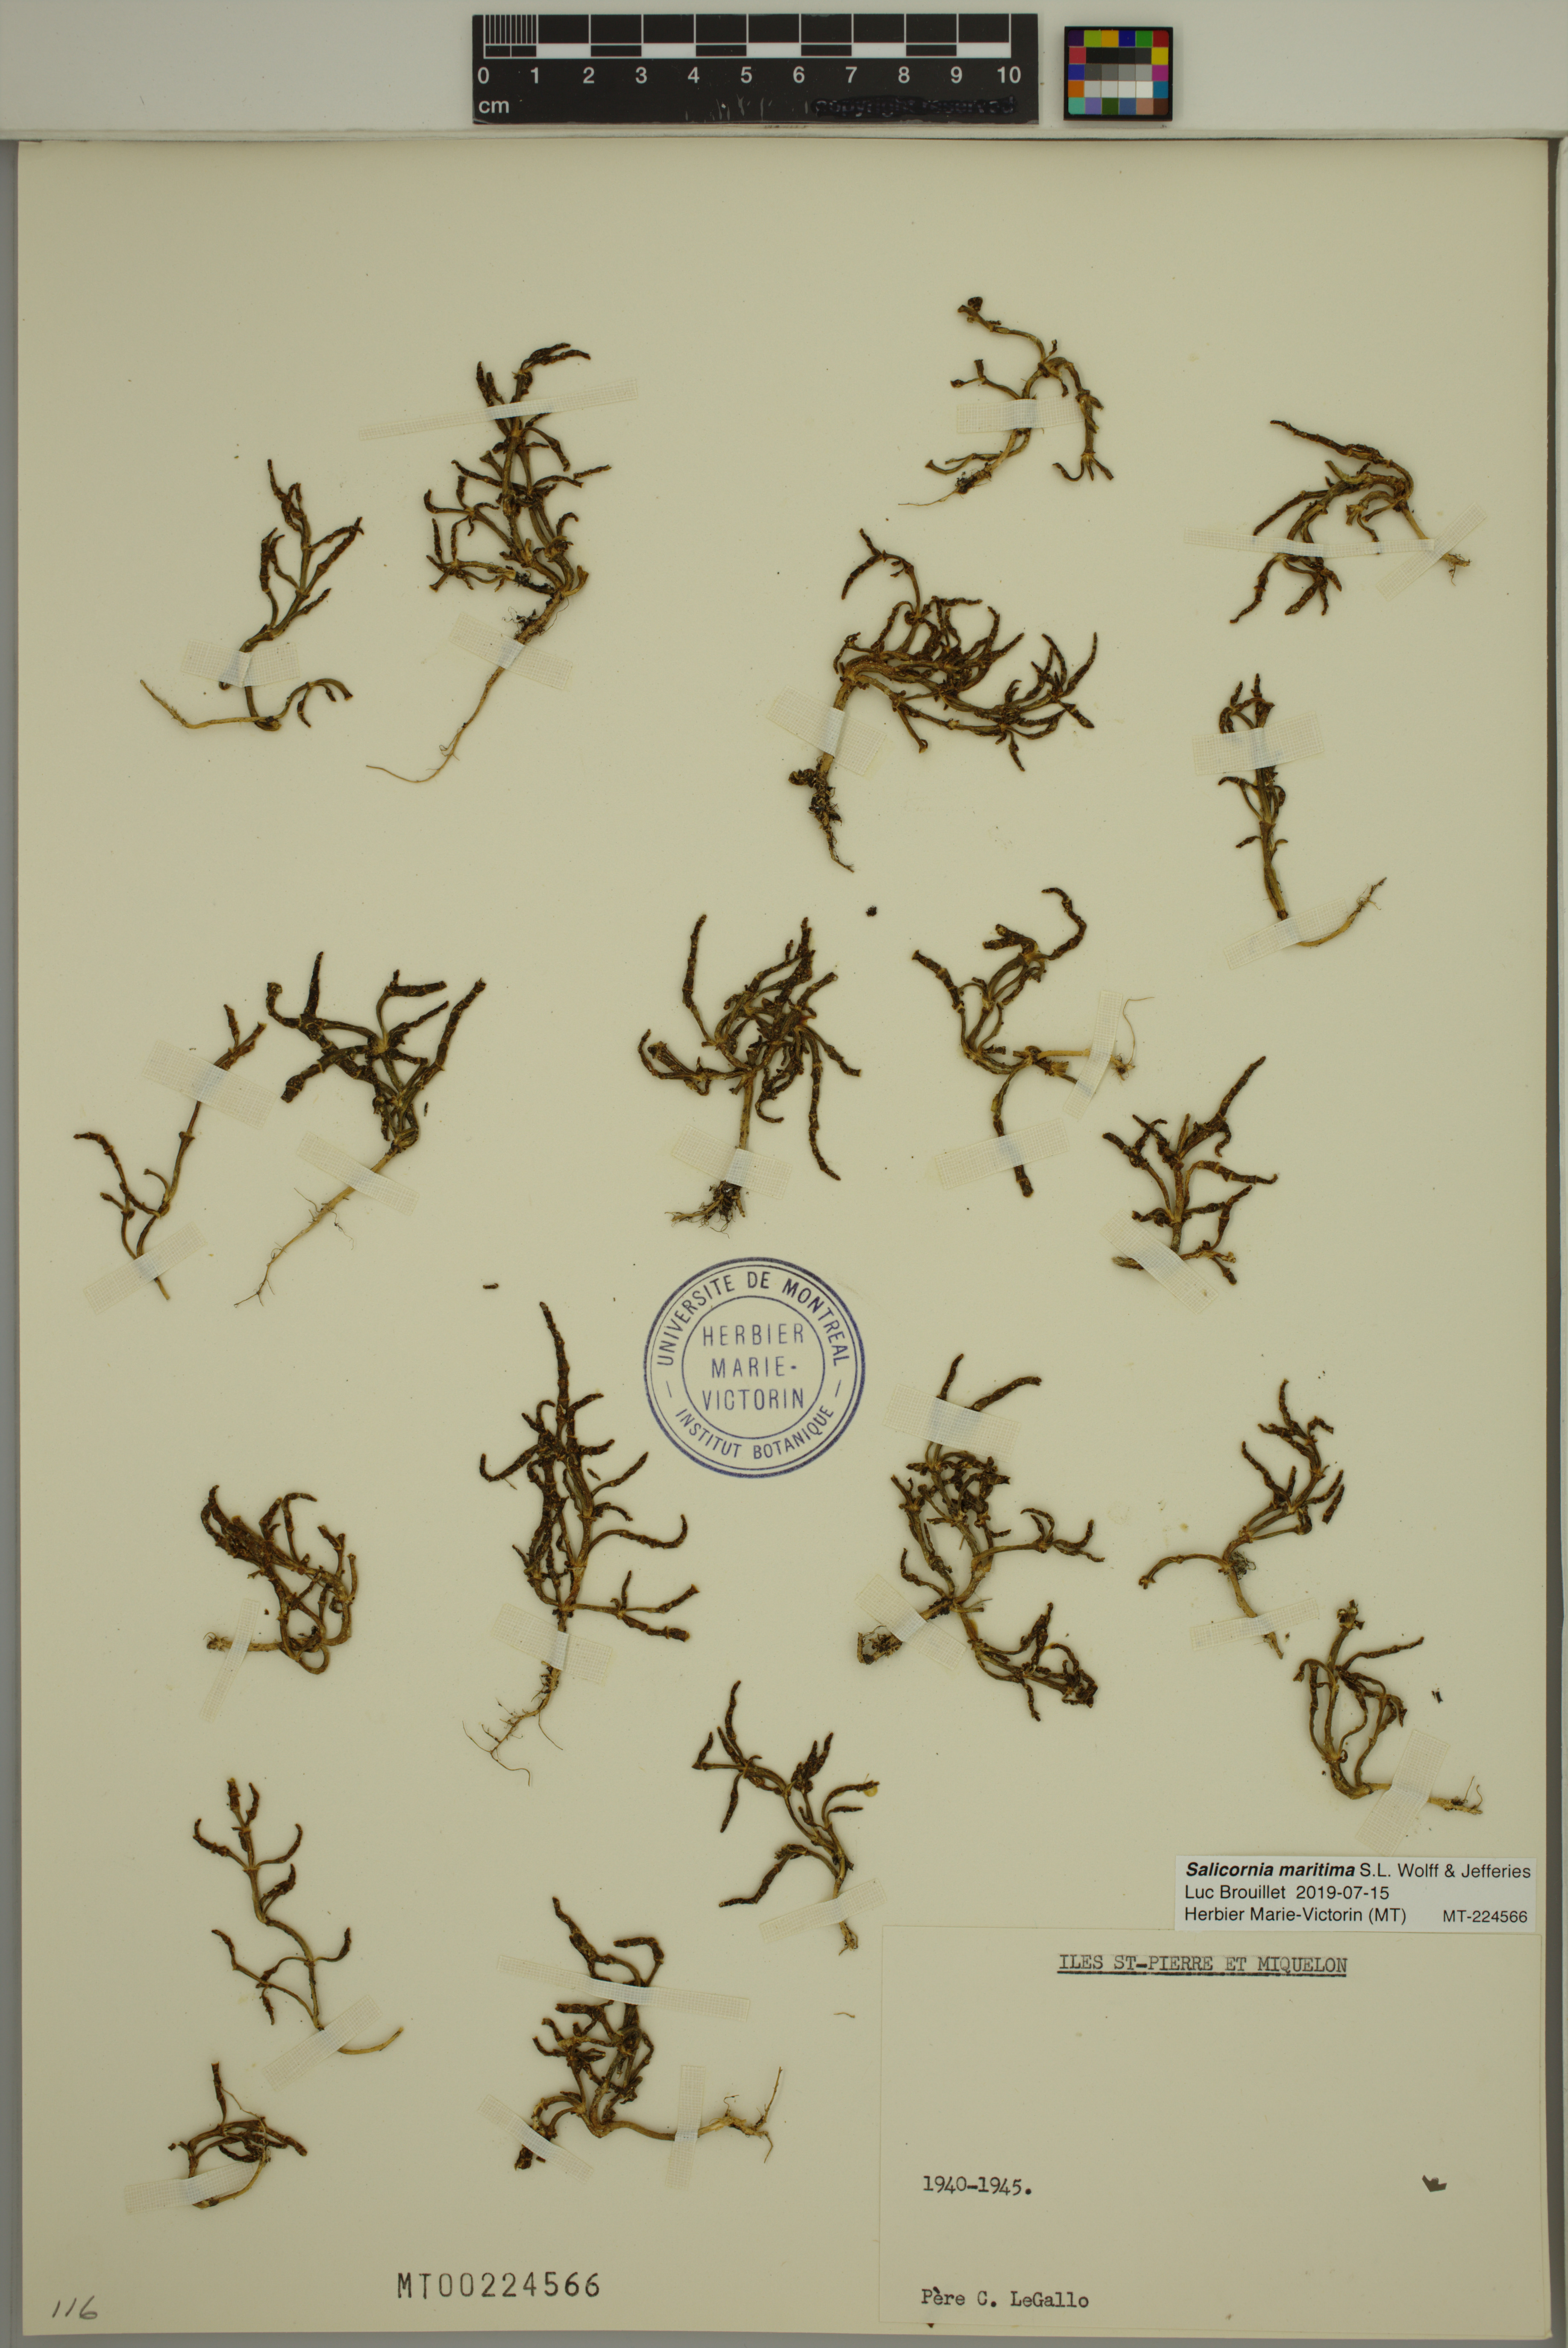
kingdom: Plantae
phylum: Tracheophyta
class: Magnoliopsida
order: Caryophyllales
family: Amaranthaceae
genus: Salicornia
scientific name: Salicornia maritima
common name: Jointed glasswort
